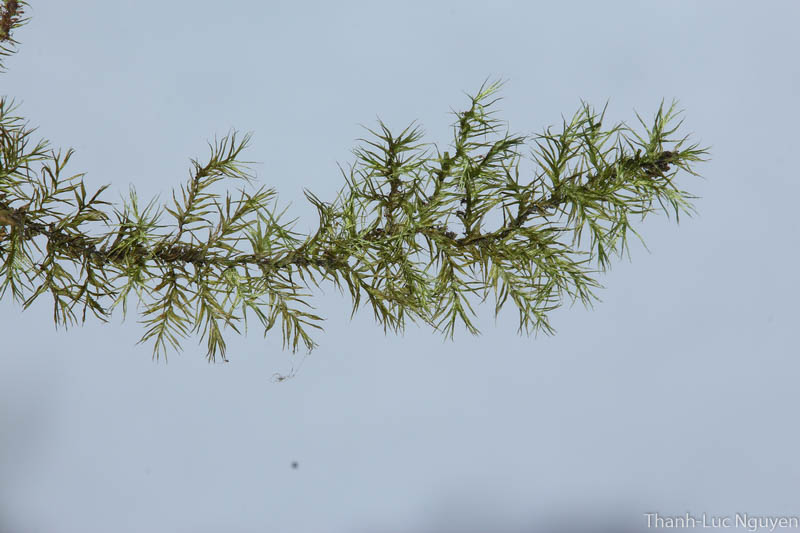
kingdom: Plantae
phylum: Bryophyta
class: Bryopsida
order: Hypnales
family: Brachytheciaceae
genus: Rhynchostegiella
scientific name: Rhynchostegiella menadensis
